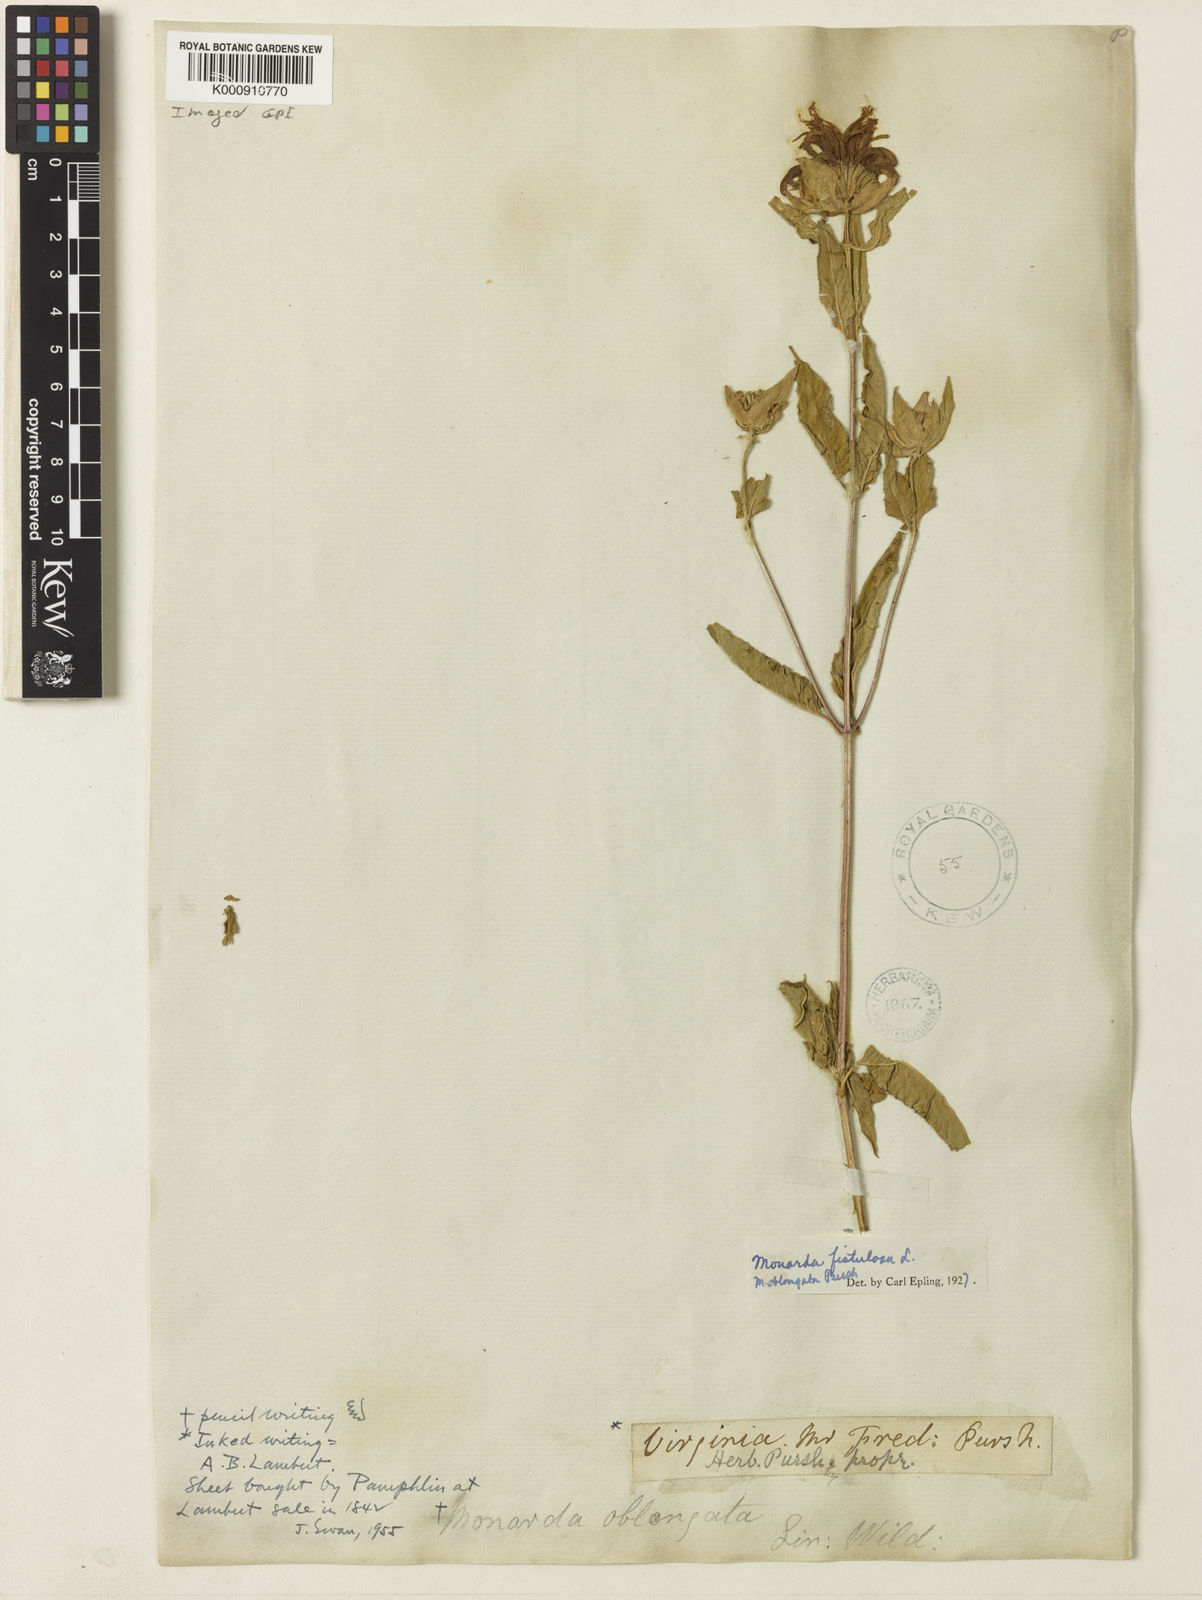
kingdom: Plantae
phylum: Tracheophyta
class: Magnoliopsida
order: Lamiales
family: Lamiaceae
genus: Monarda
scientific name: Monarda fistulosa
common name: Purple beebalm
